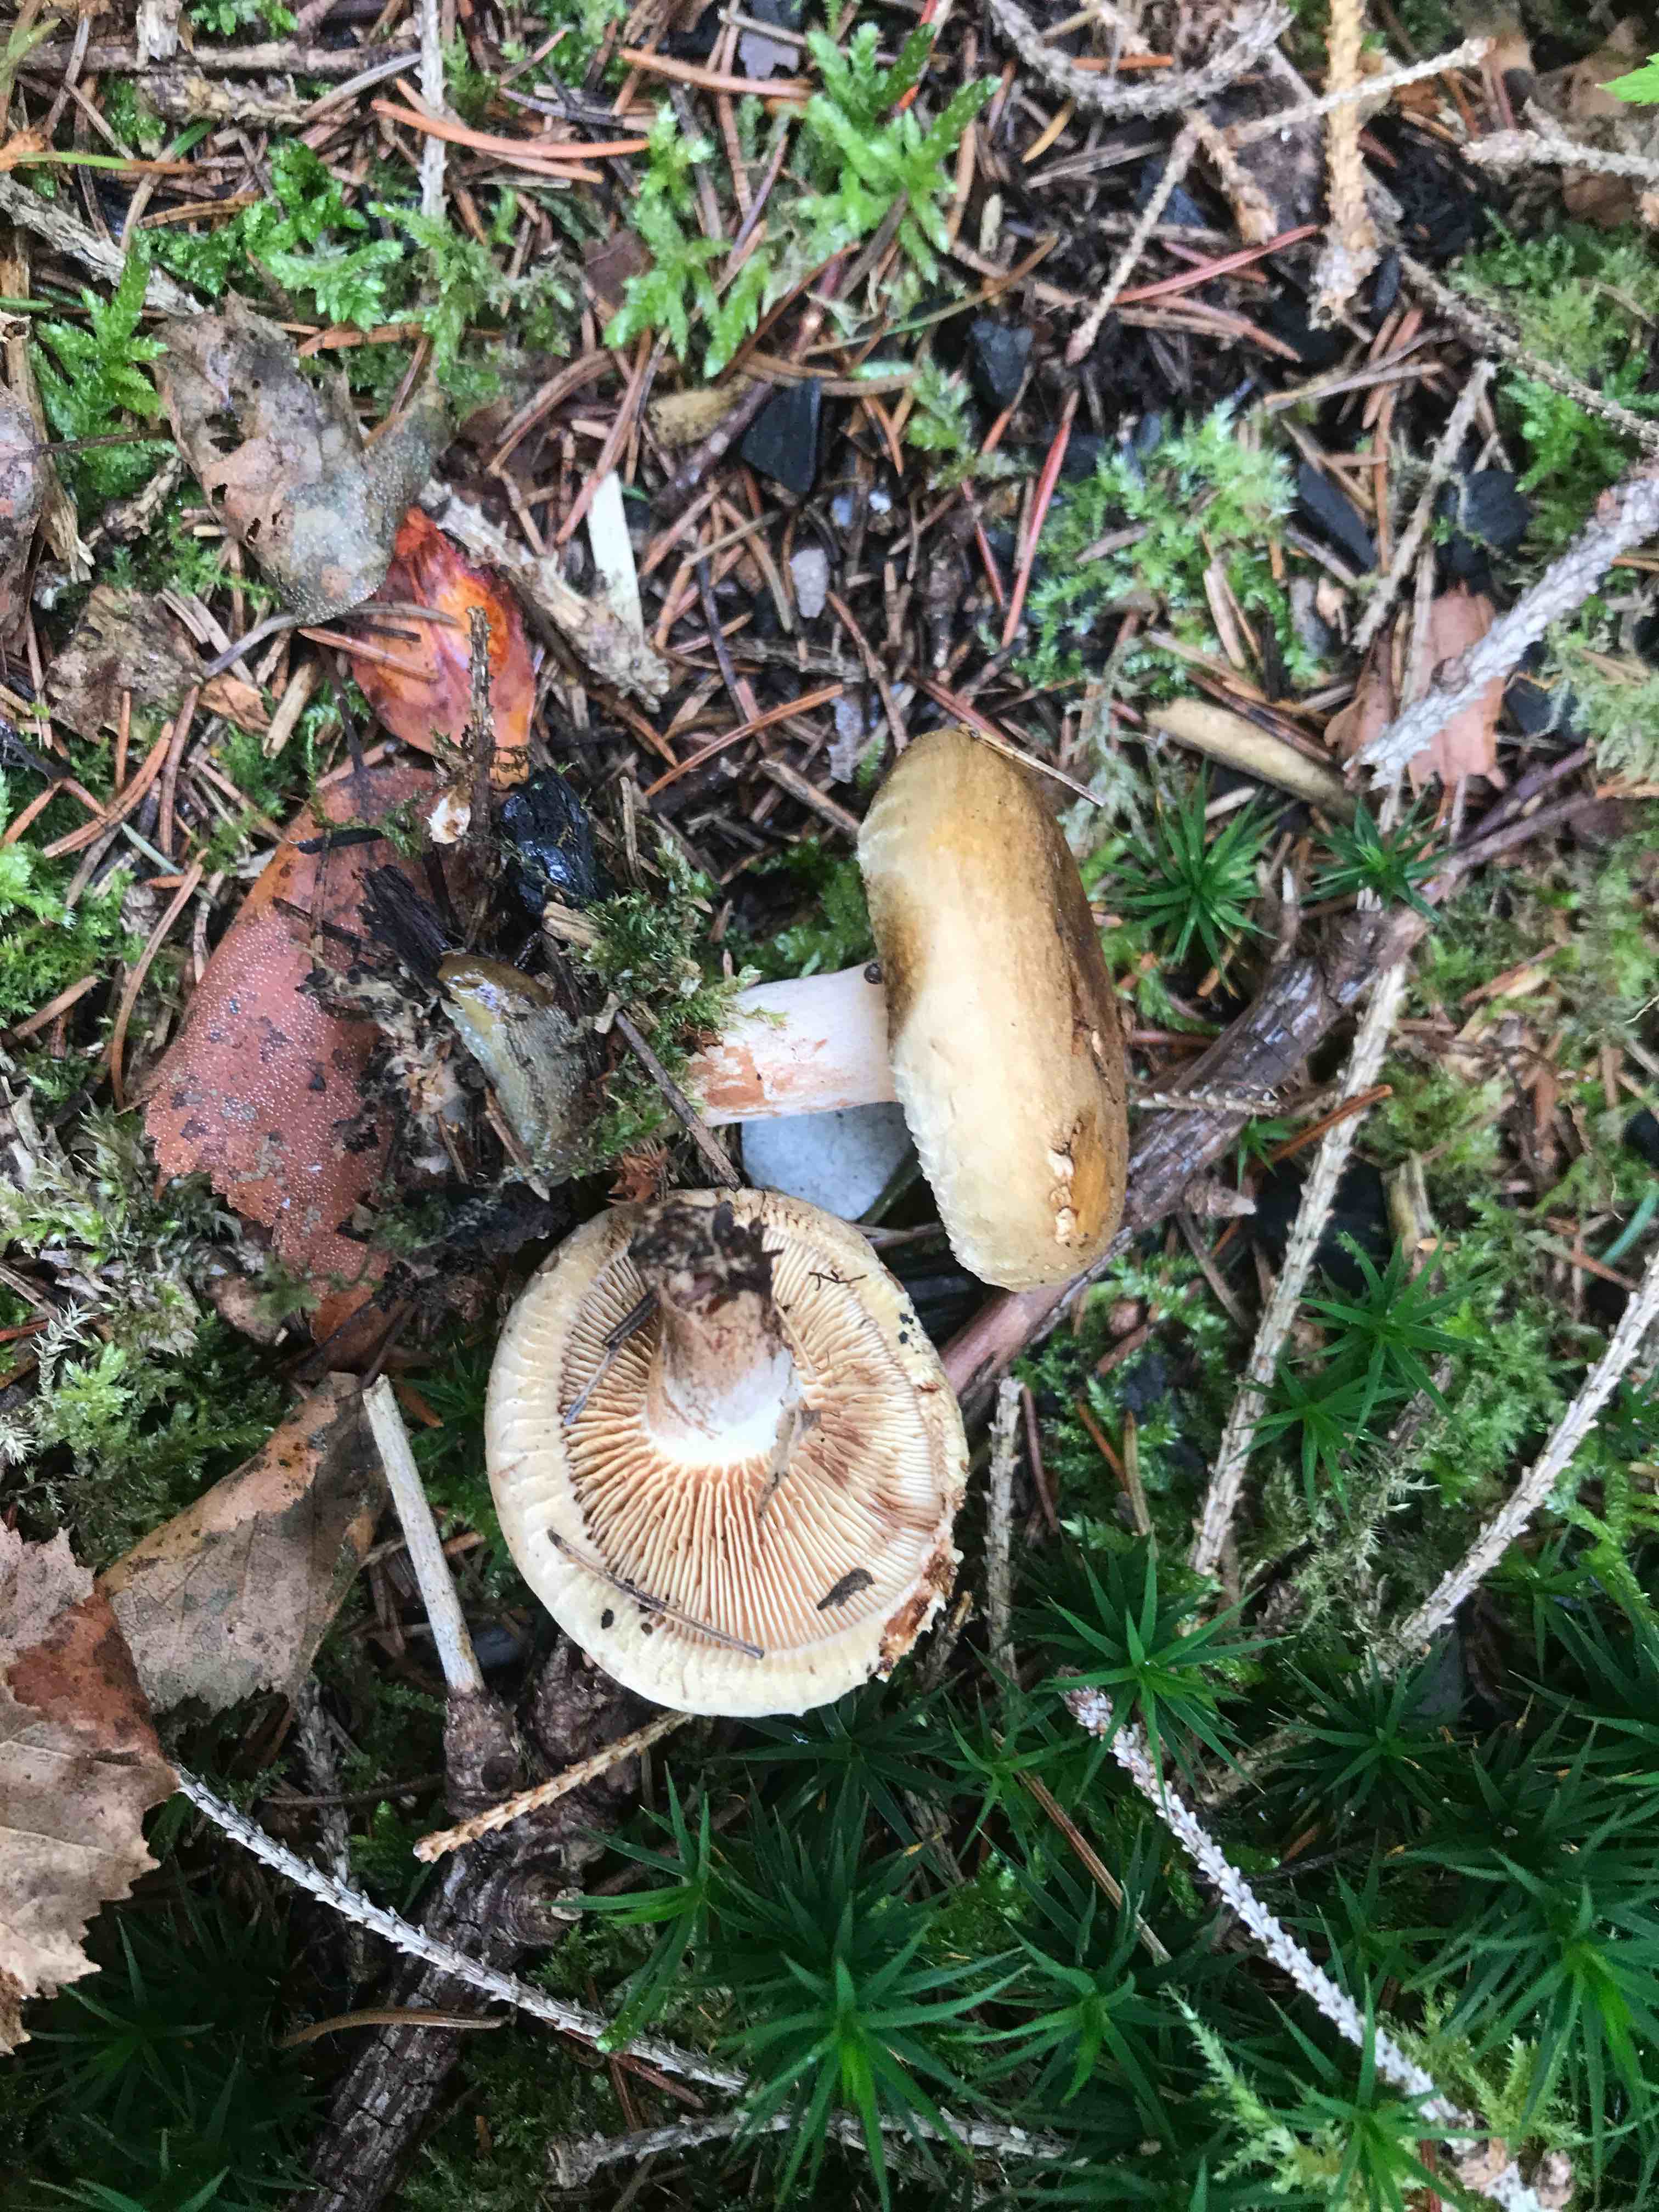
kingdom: Fungi
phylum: Basidiomycota
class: Agaricomycetes
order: Boletales
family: Paxillaceae
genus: Paxillus
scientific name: Paxillus involutus
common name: almindelig netbladhat
